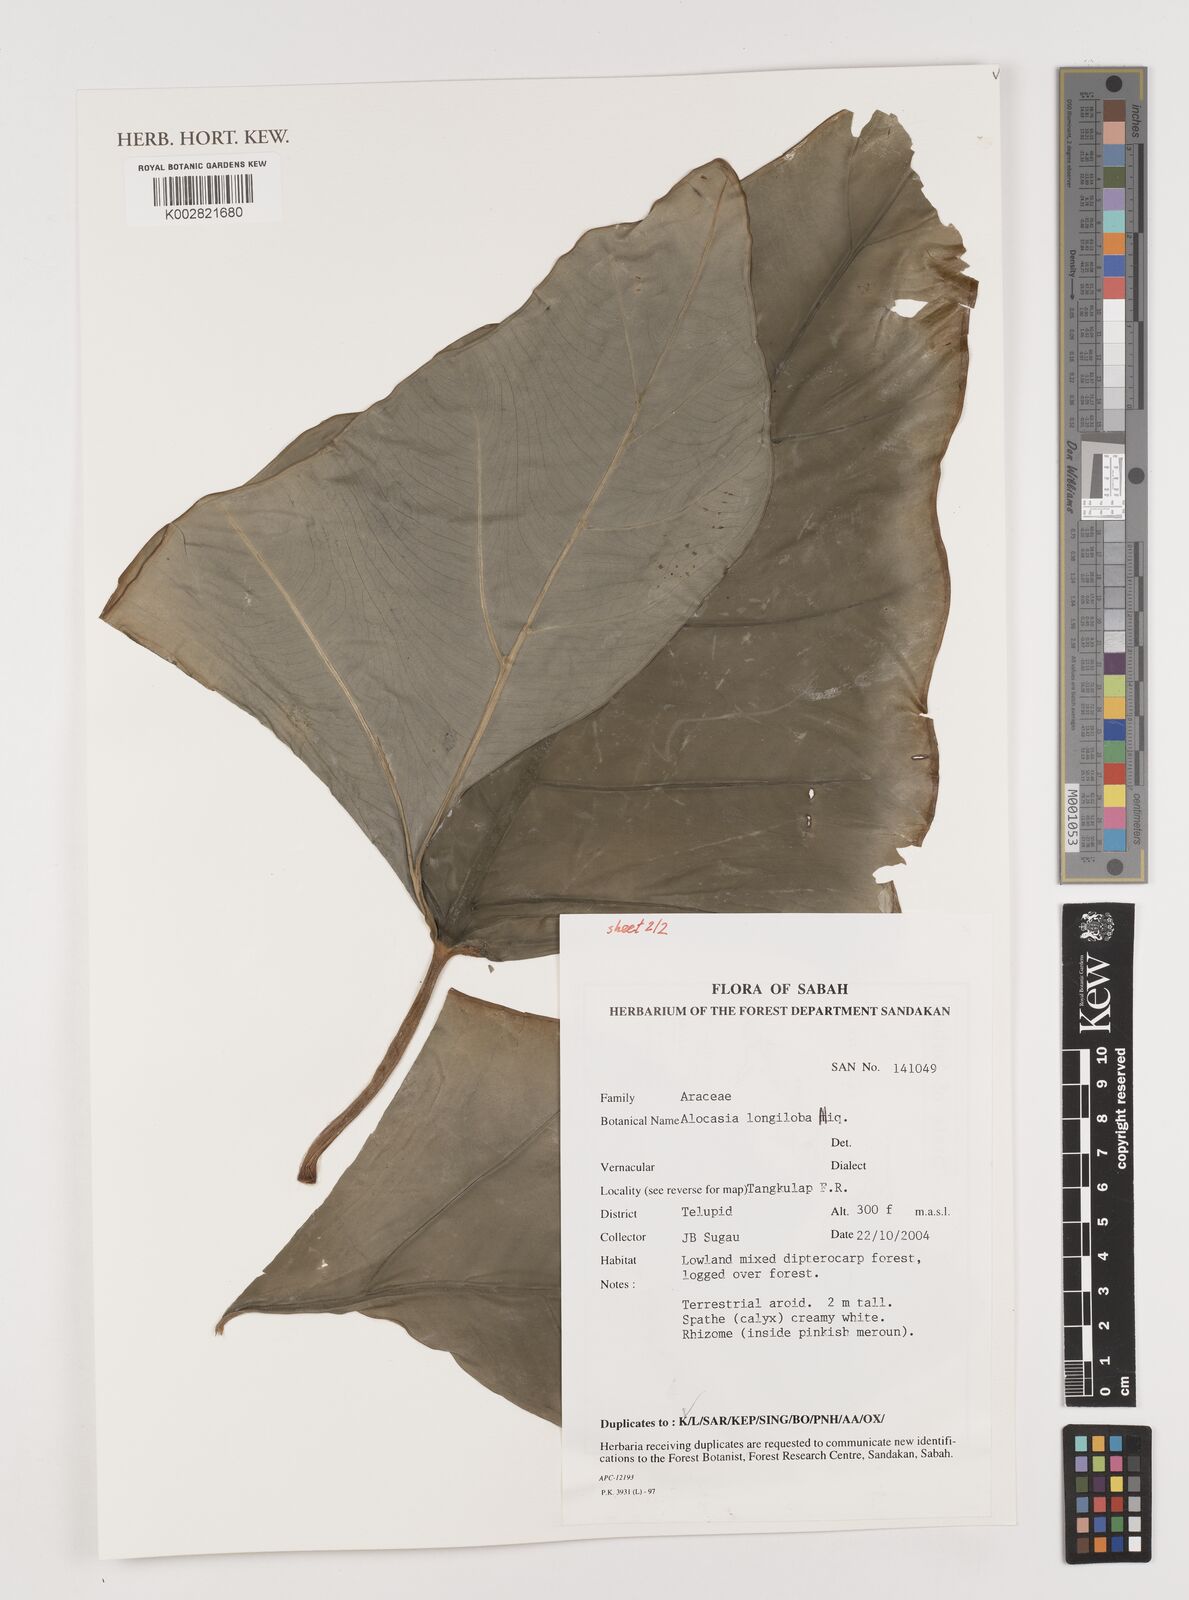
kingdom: Plantae
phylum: Tracheophyta
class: Liliopsida
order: Alismatales
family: Araceae
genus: Alocasia
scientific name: Alocasia longiloba
